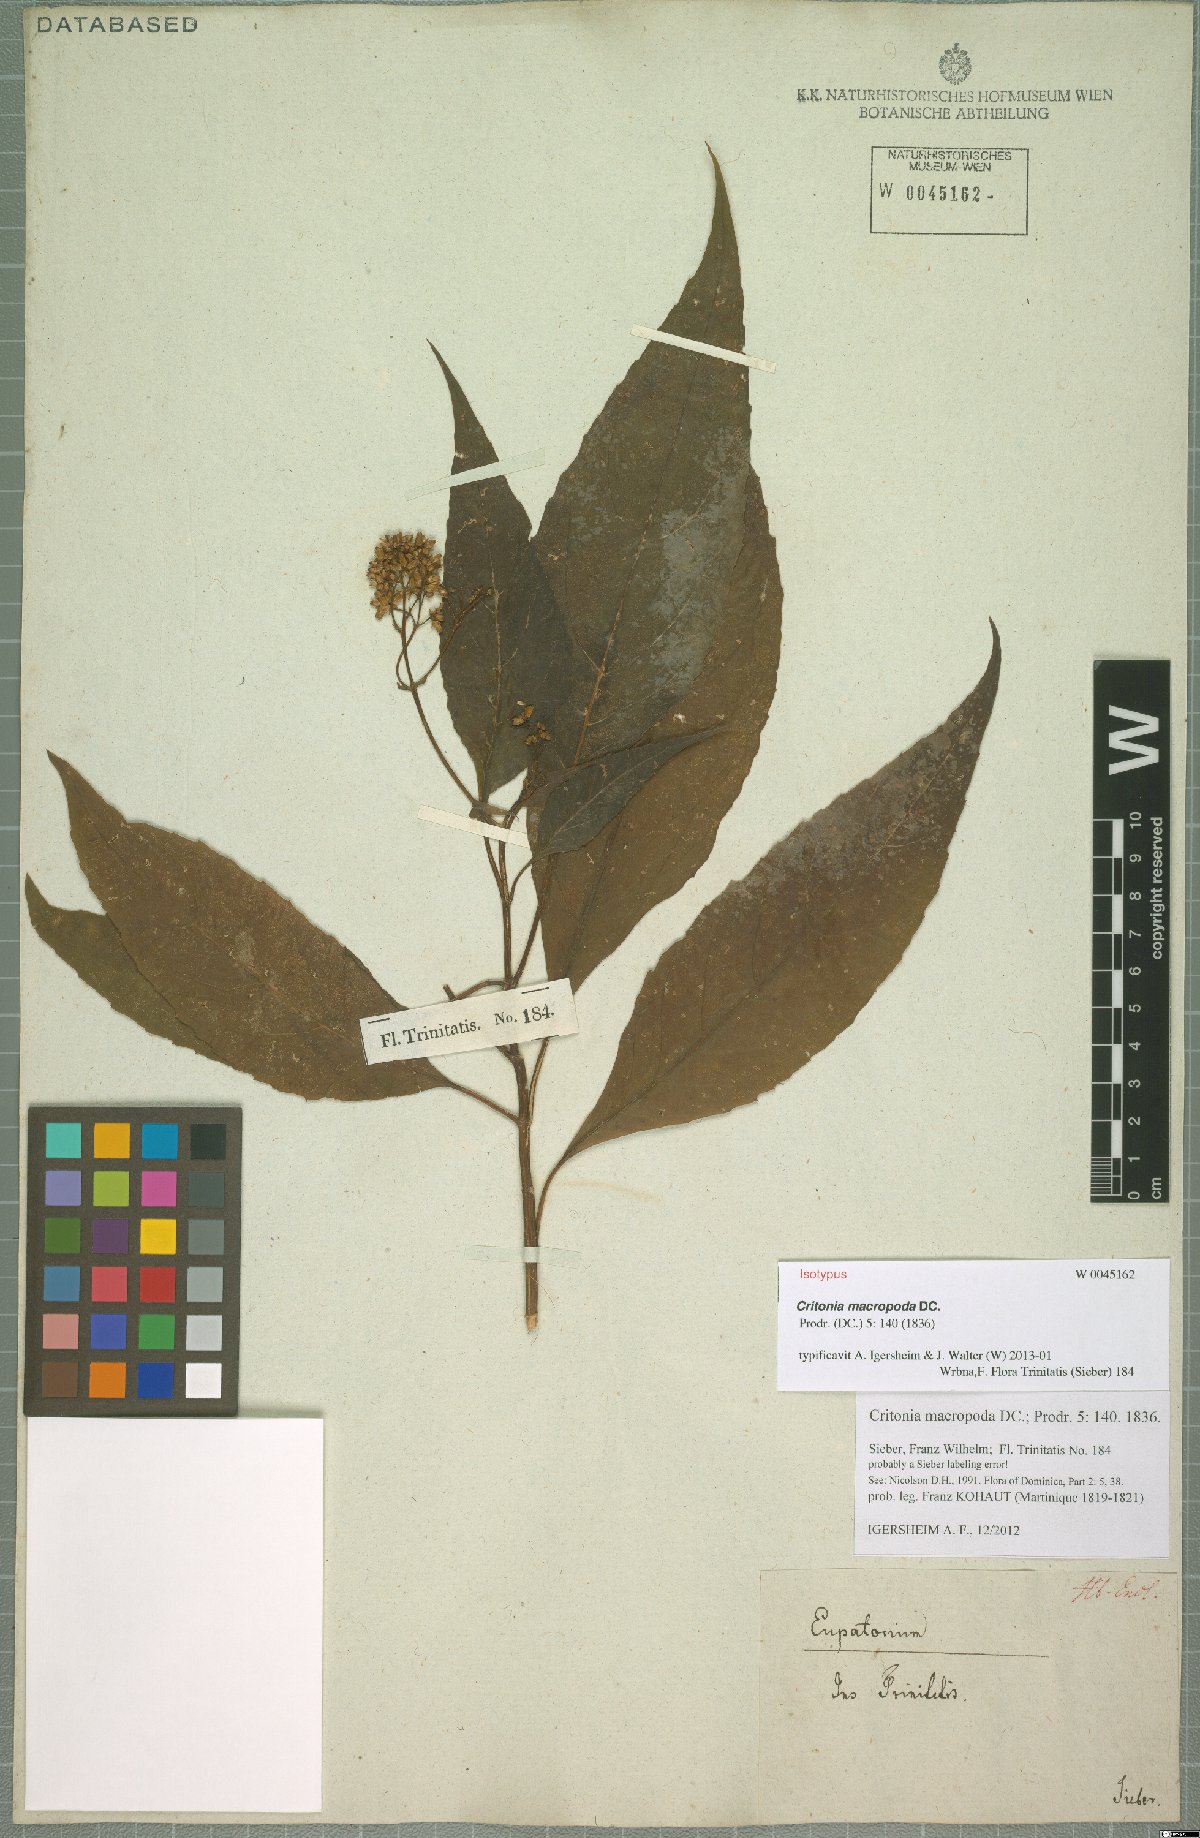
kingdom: Plantae
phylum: Tracheophyta
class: Magnoliopsida
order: Asterales
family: Asteraceae
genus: Critonia
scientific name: Critonia macropoda
